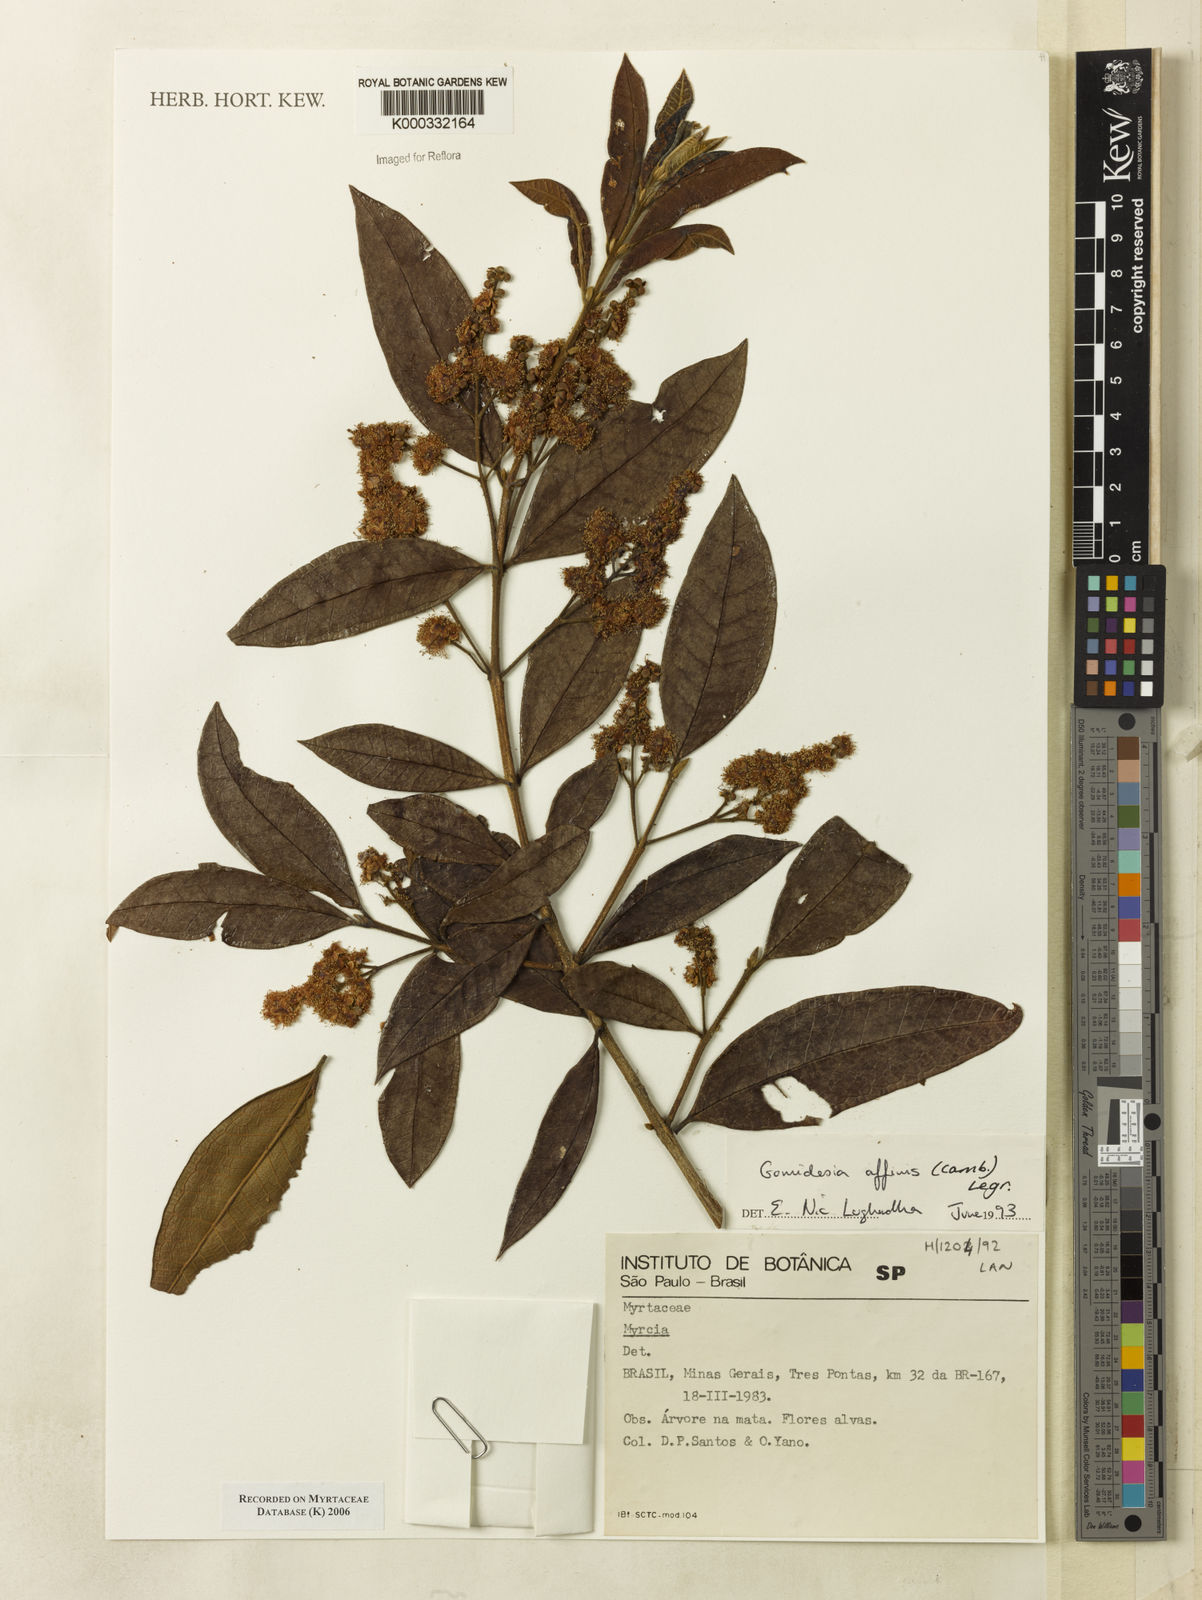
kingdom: Plantae
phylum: Tracheophyta
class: Magnoliopsida
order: Myrtales
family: Myrtaceae
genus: Myrcia
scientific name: Myrcia hebepetala
